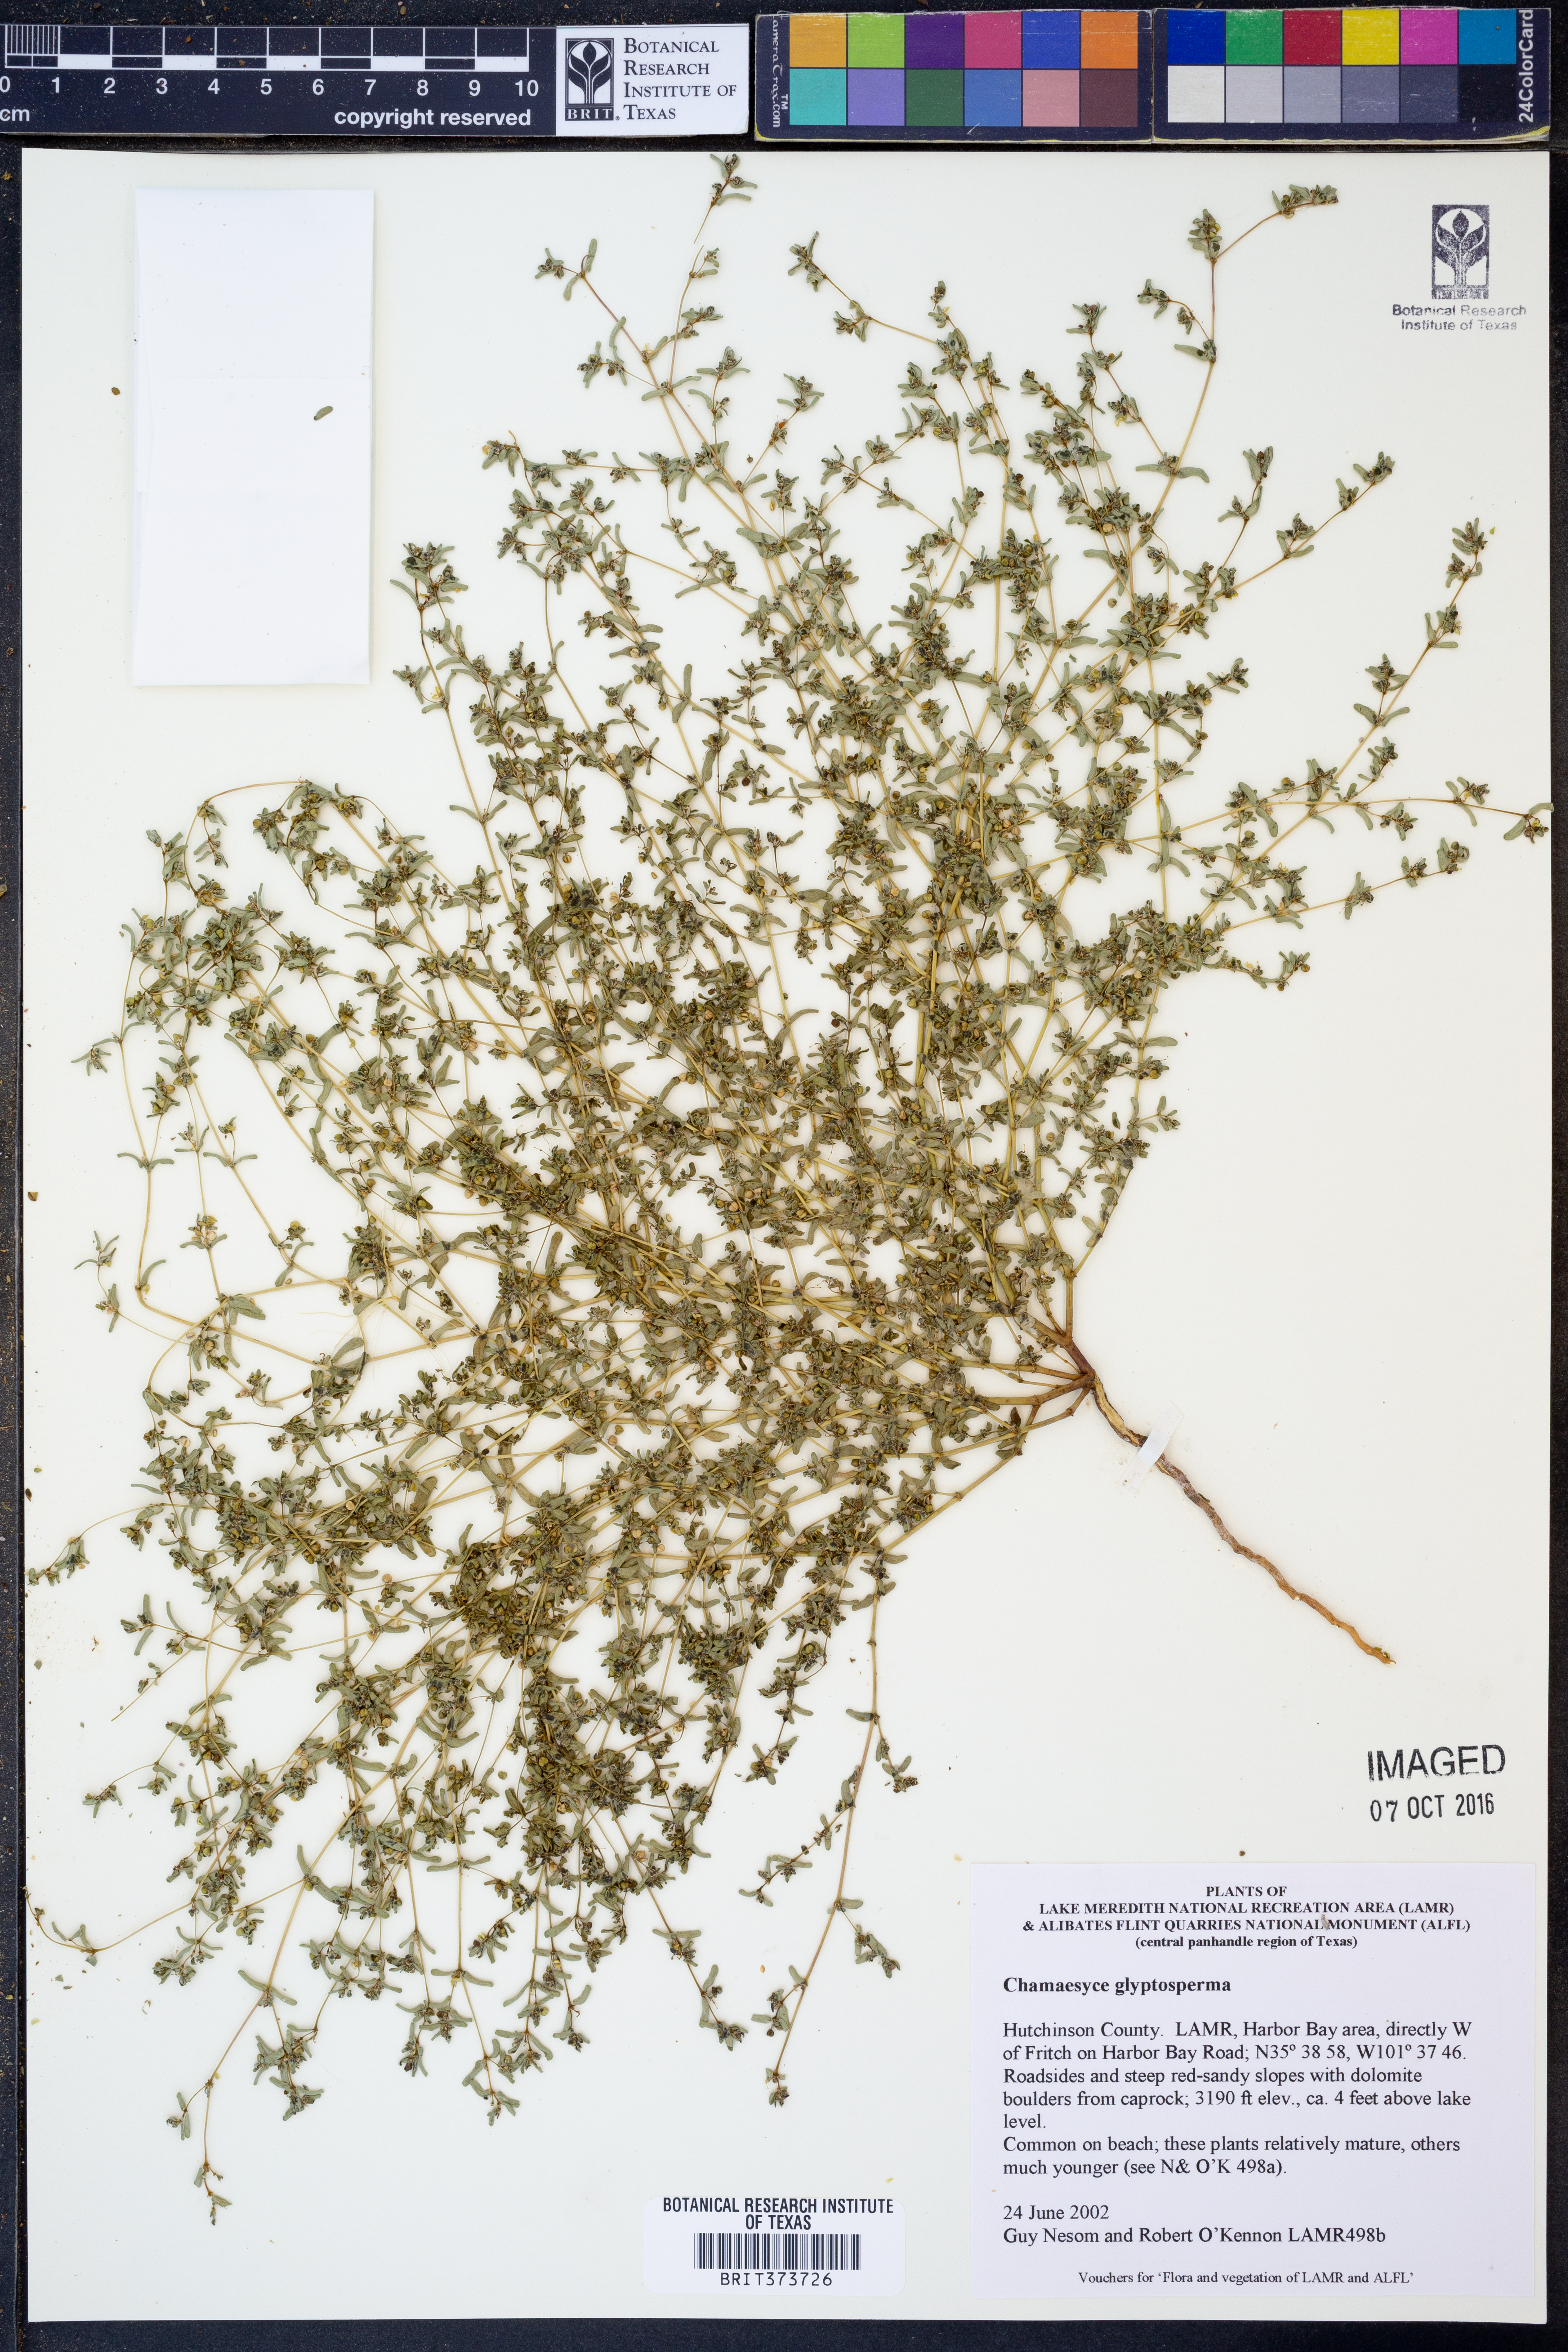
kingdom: Plantae
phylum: Tracheophyta
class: Magnoliopsida
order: Malpighiales
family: Euphorbiaceae
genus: Euphorbia
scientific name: Euphorbia glyptosperma
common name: Corrugate-seeded spurge
